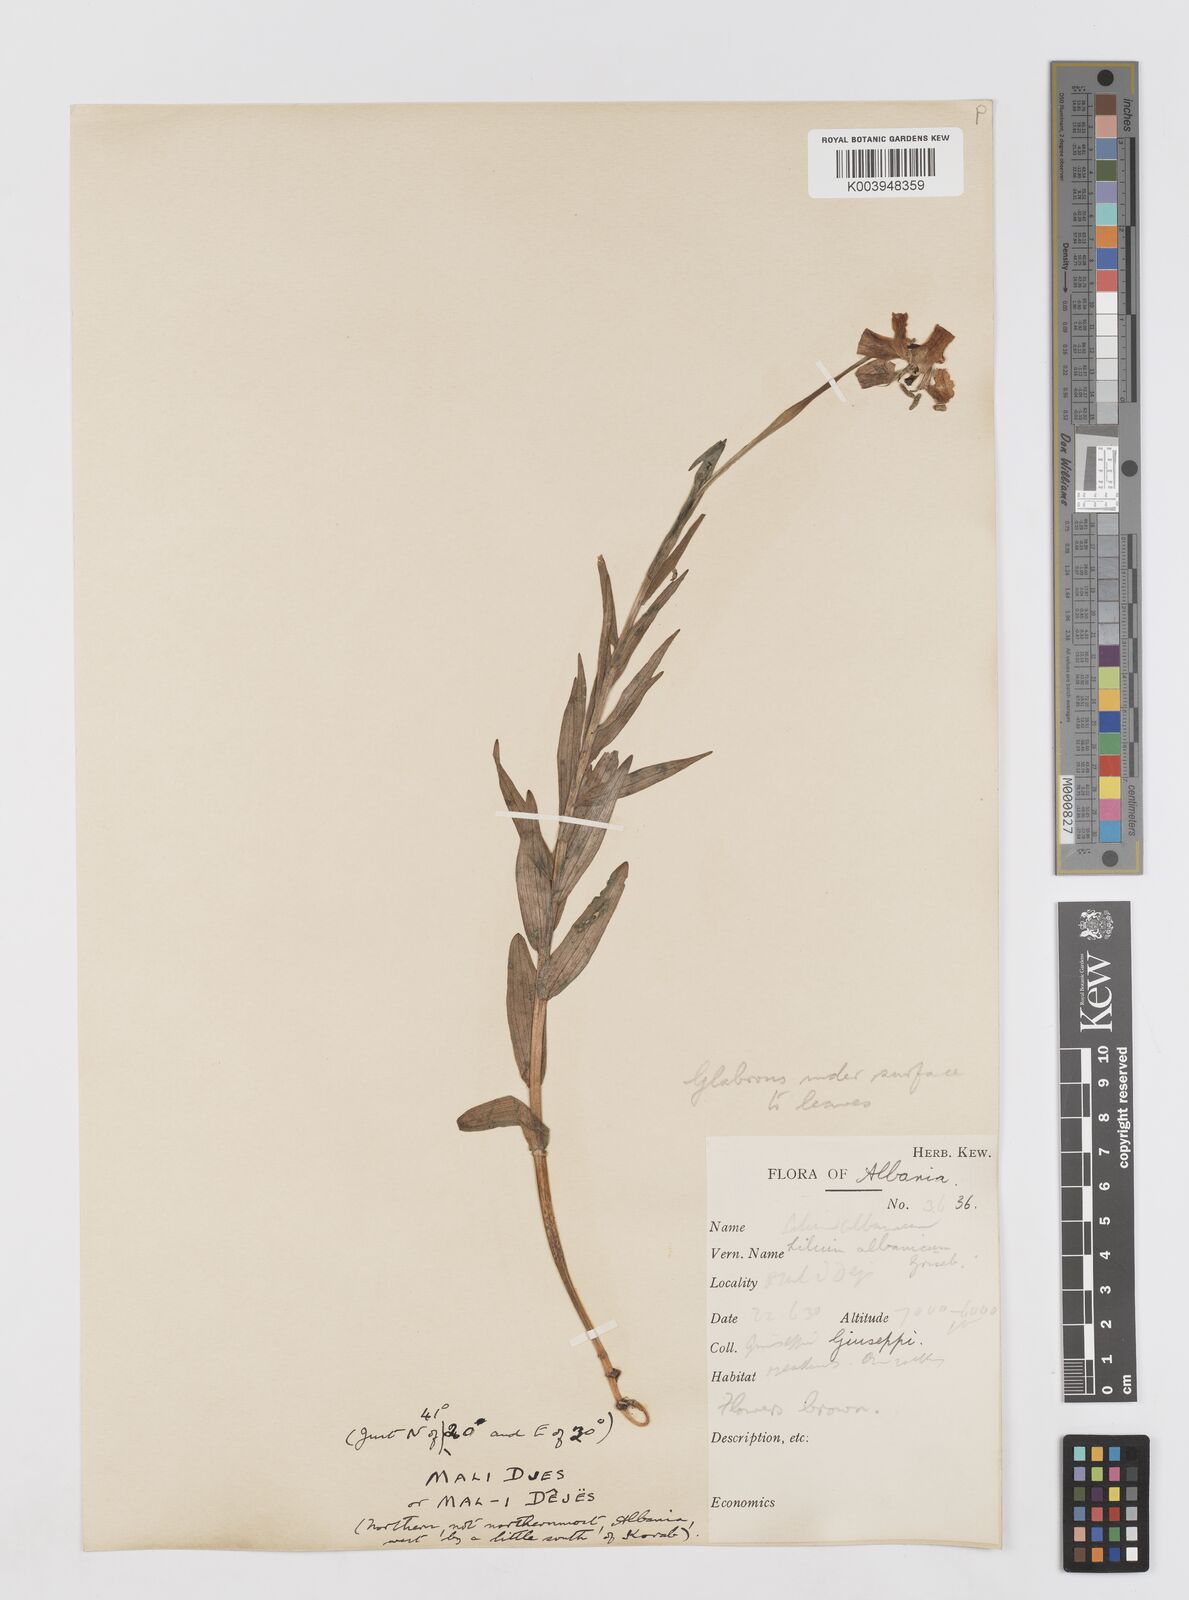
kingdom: Plantae
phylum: Tracheophyta
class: Liliopsida
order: Liliales
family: Liliaceae
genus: Lilium
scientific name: Lilium albanicum
